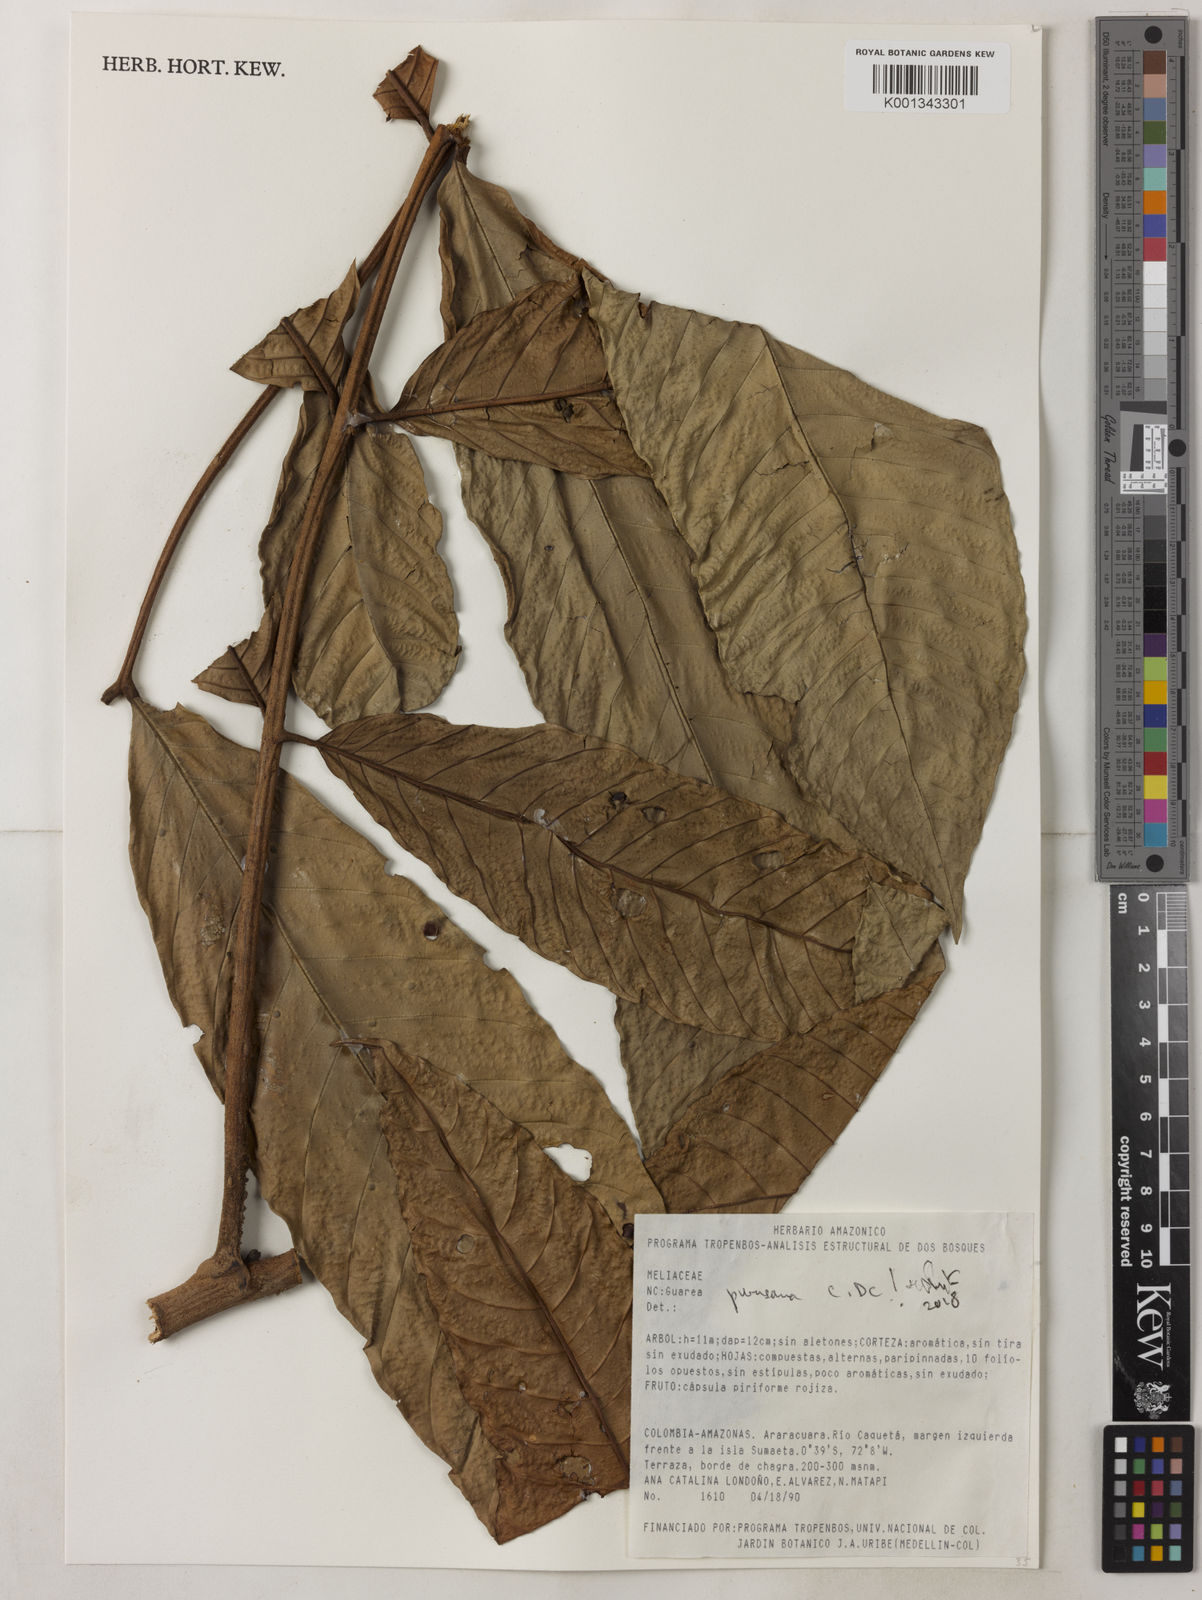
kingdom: Plantae
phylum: Tracheophyta
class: Magnoliopsida
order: Sapindales
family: Meliaceae
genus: Guarea
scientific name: Guarea purusana
